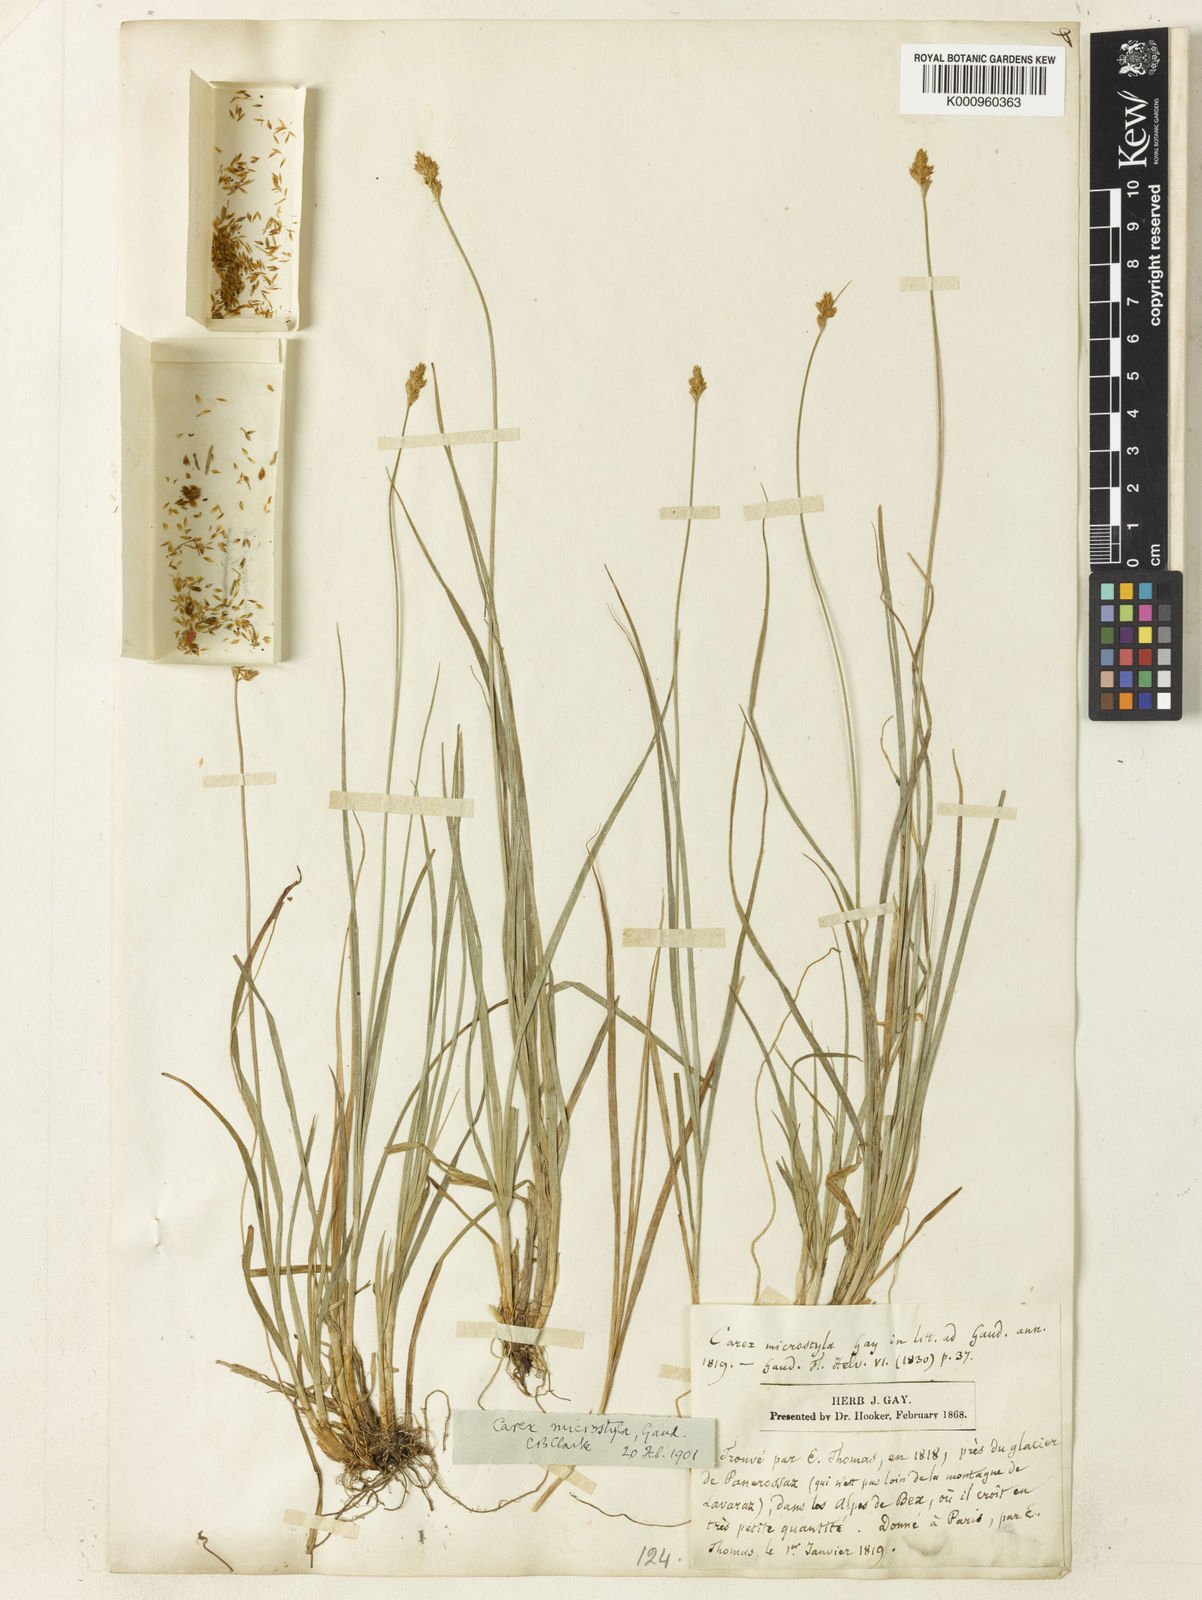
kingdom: Plantae
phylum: Tracheophyta
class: Liliopsida
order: Poales
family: Cyperaceae
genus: Carex
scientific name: Carex
